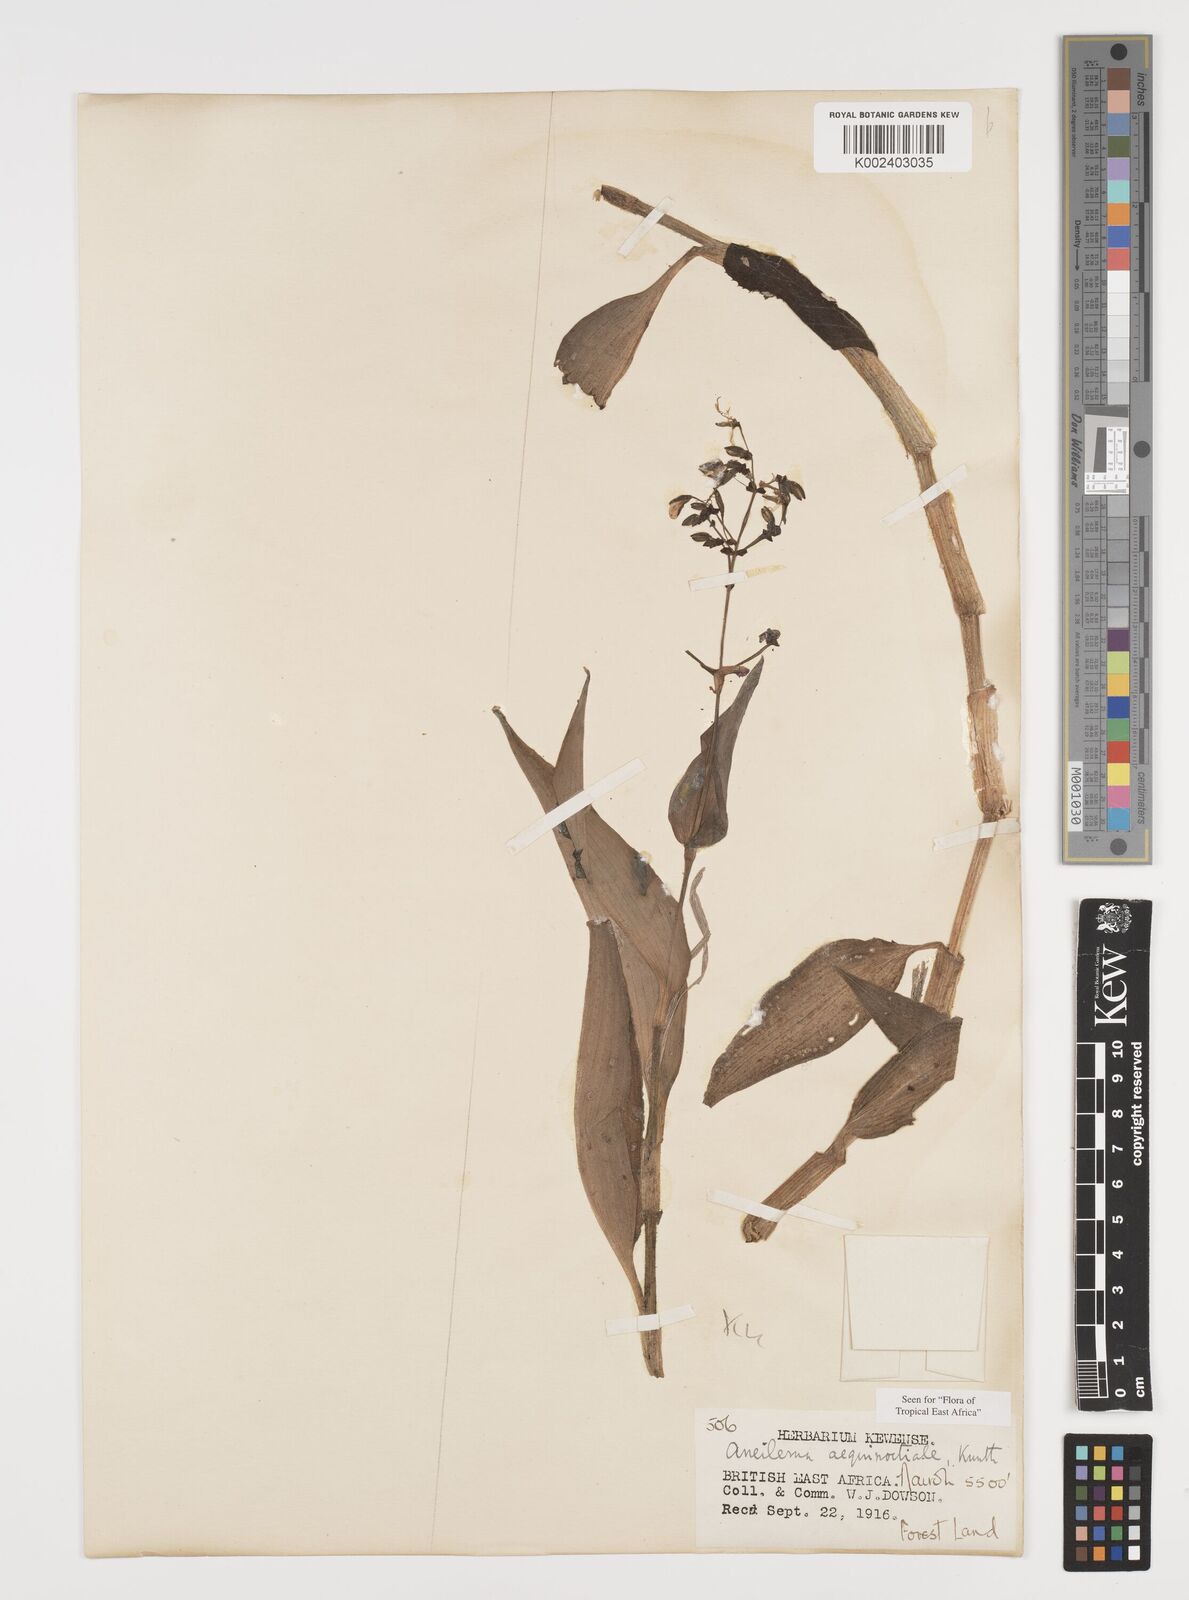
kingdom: Plantae
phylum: Tracheophyta
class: Liliopsida
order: Commelinales
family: Commelinaceae
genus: Aneilema
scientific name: Aneilema aequinoctiale
